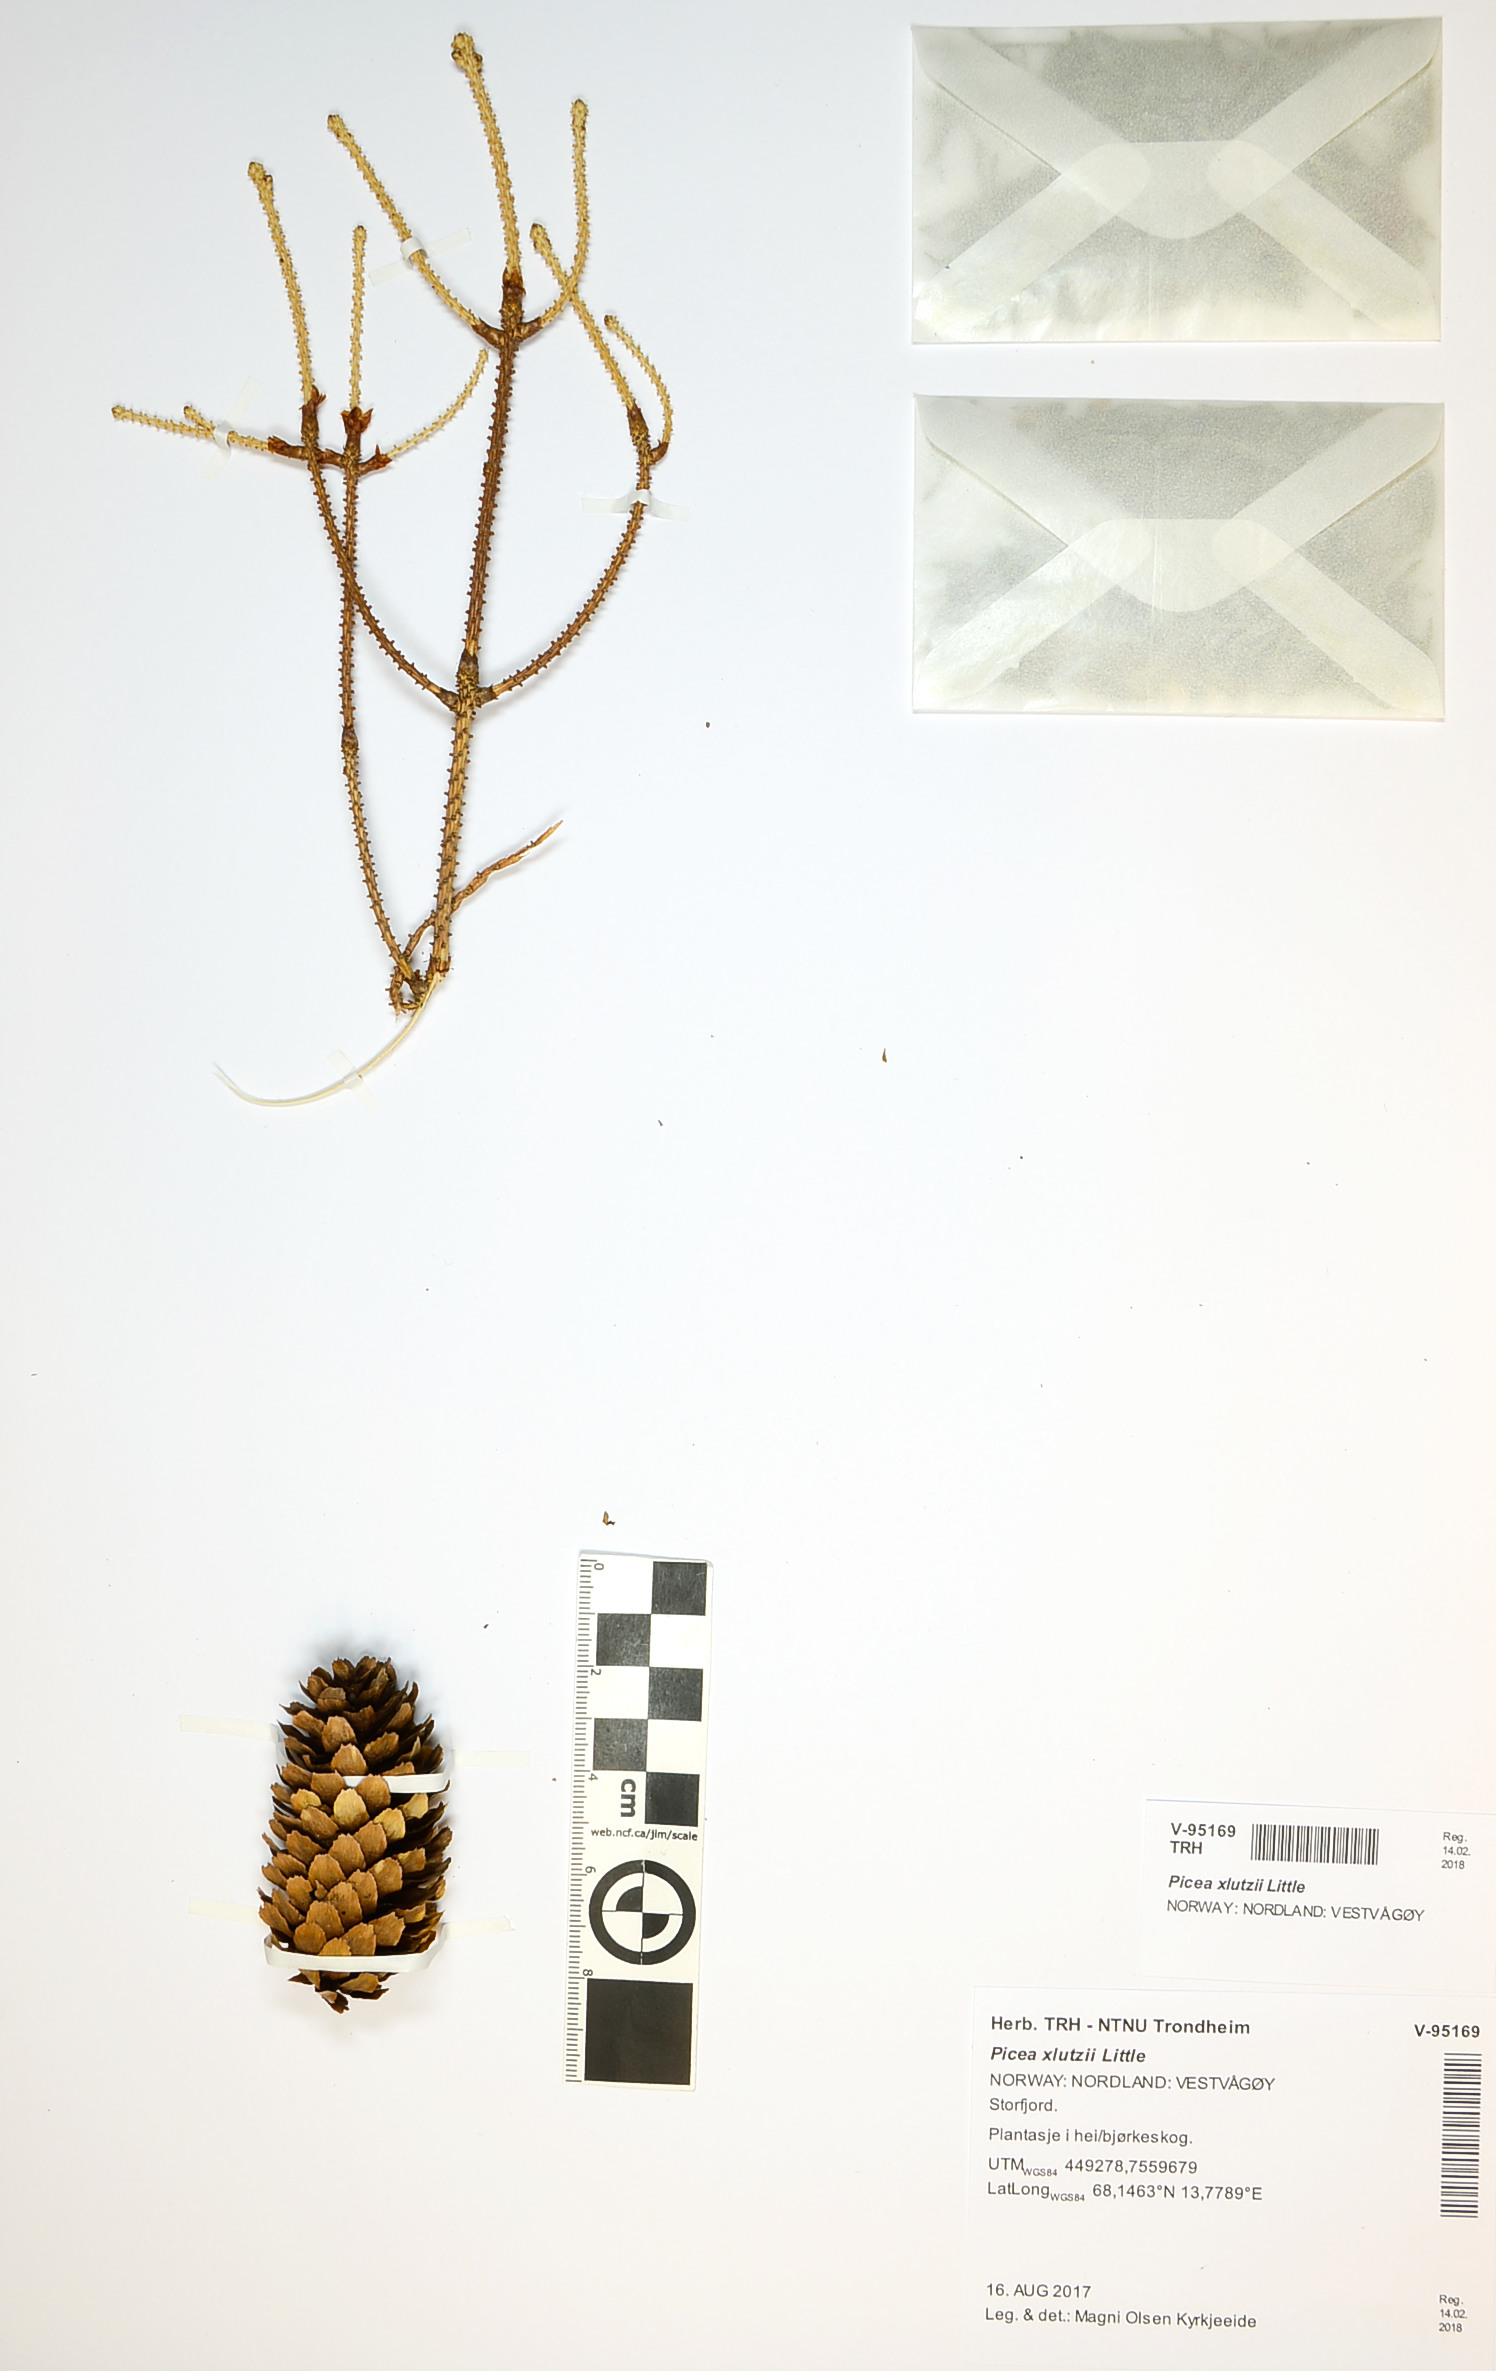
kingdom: Plantae
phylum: Tracheophyta
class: Pinopsida
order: Pinales
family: Pinaceae
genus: Picea
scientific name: Picea lutzii
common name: Lutz spruce
